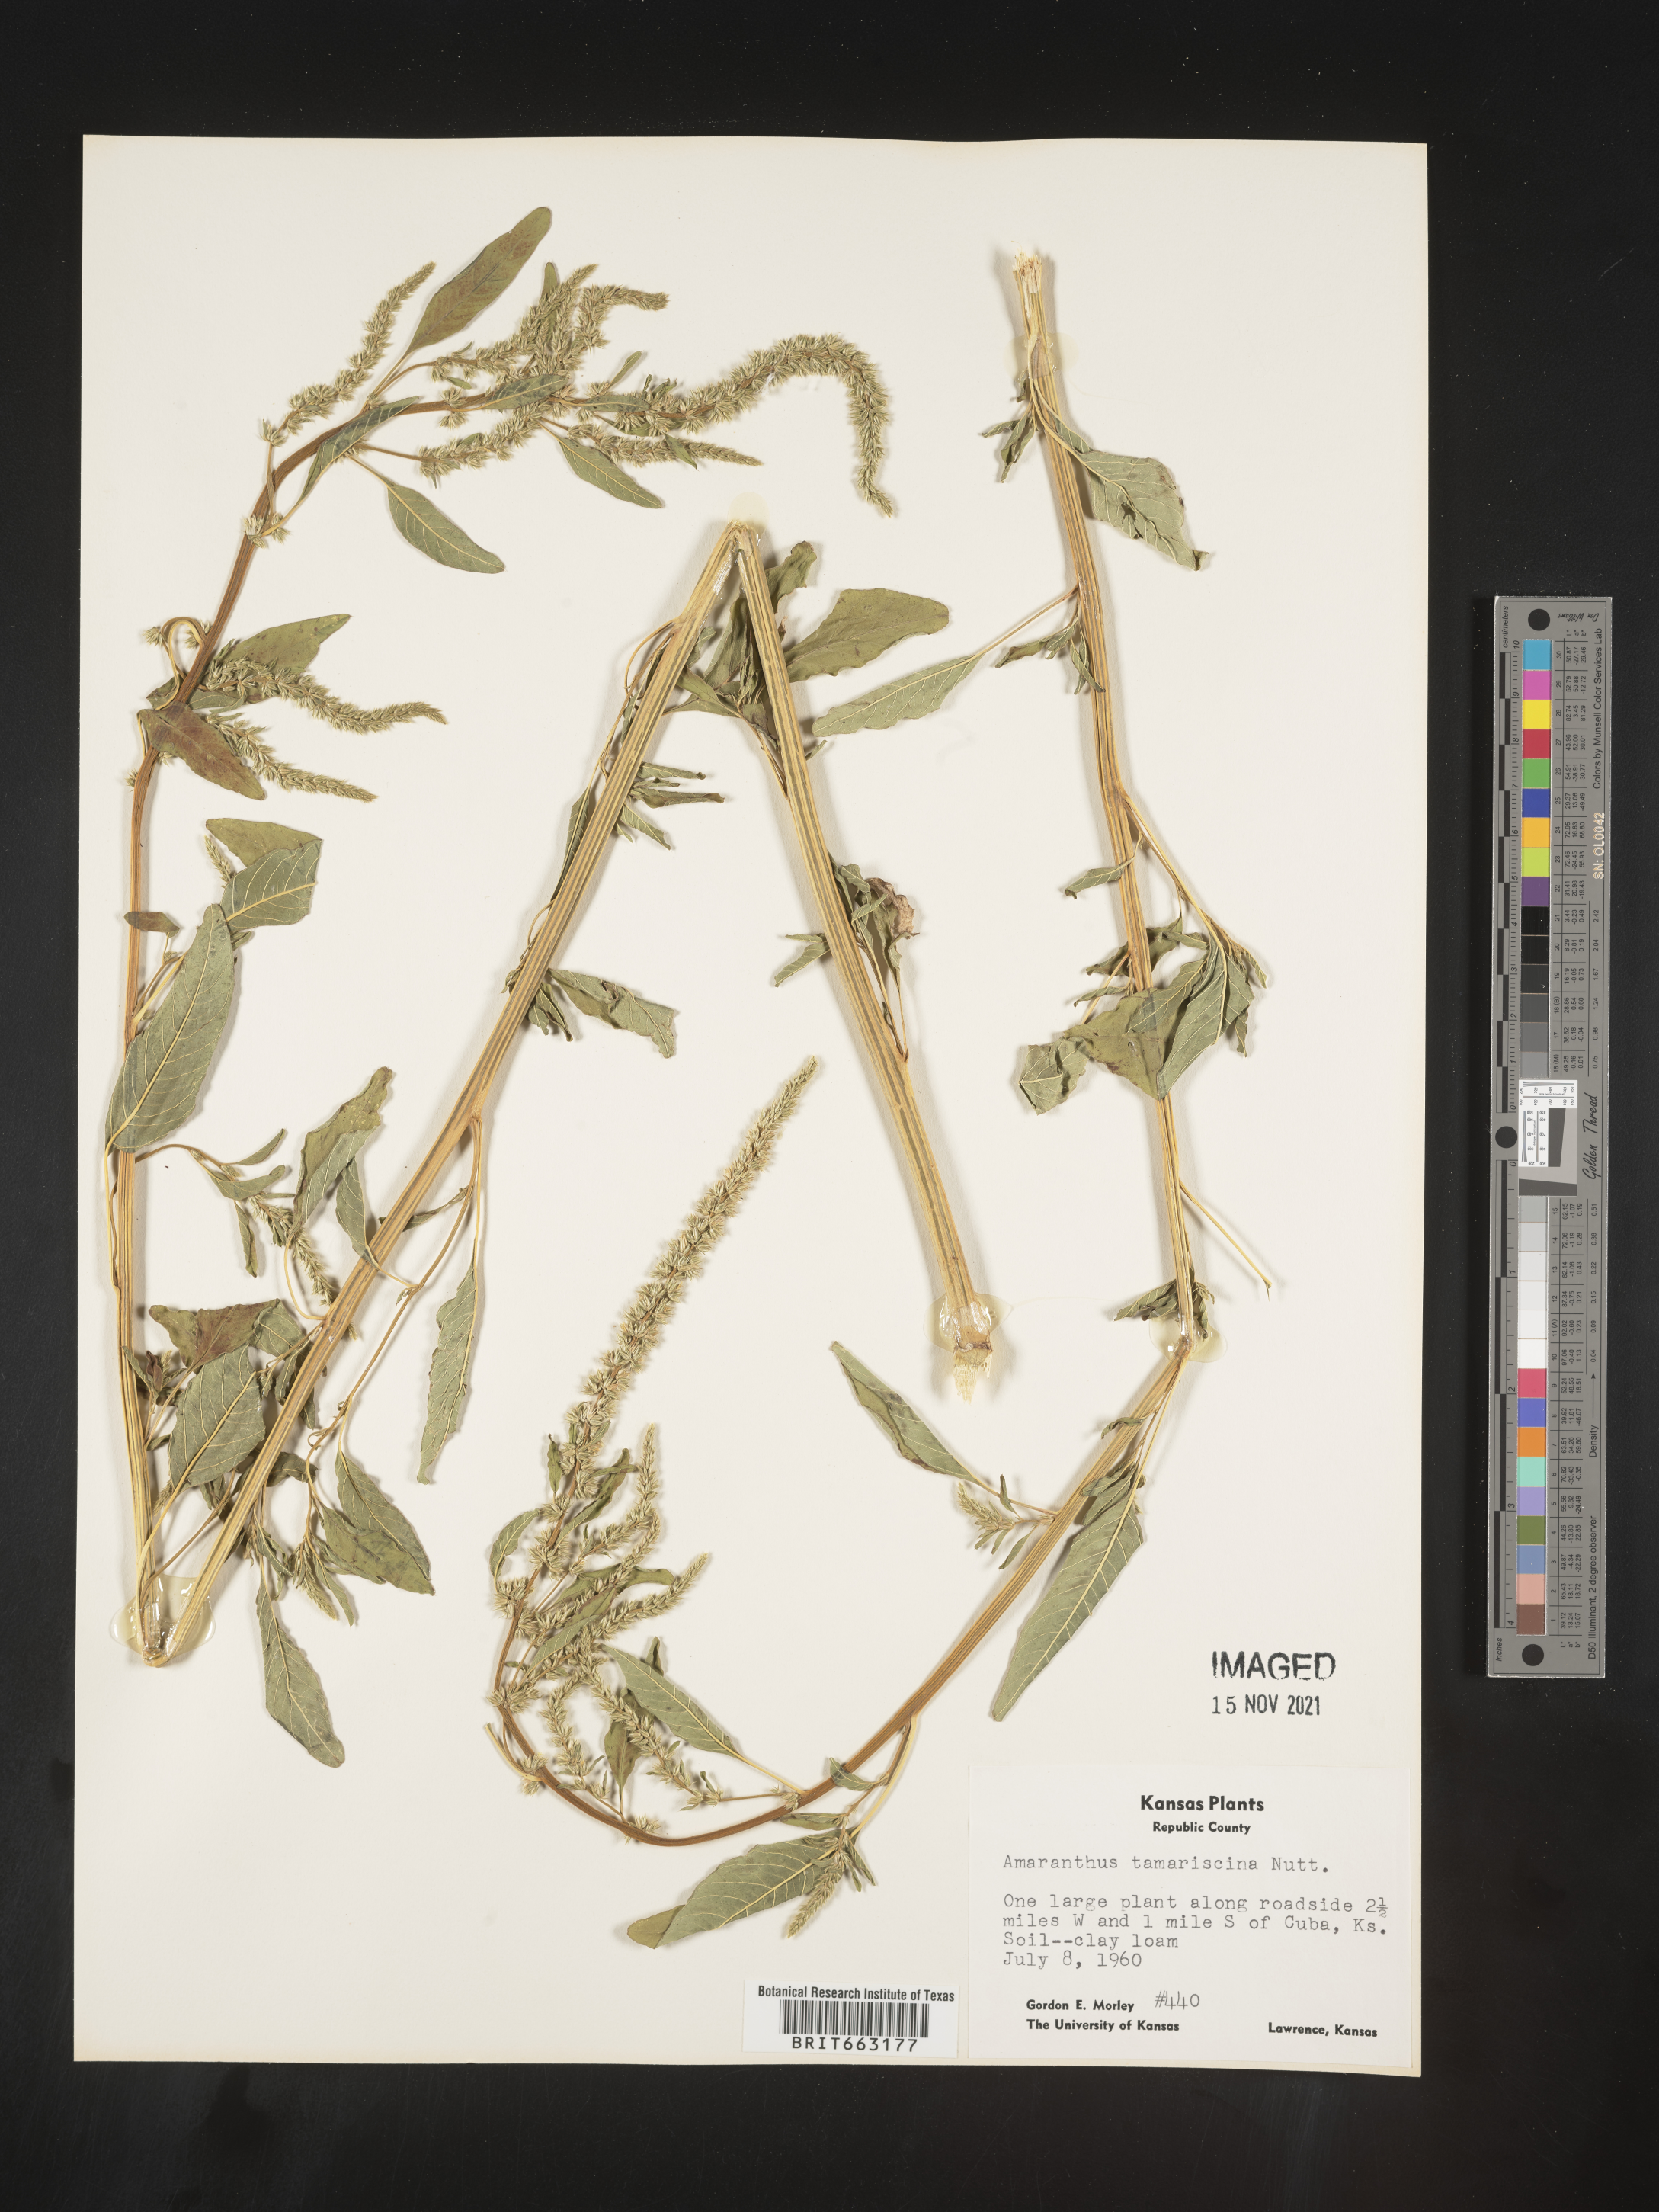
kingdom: Plantae
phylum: Tracheophyta
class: Magnoliopsida
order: Caryophyllales
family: Amaranthaceae
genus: Amaranthus
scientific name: Amaranthus tamariscinus
